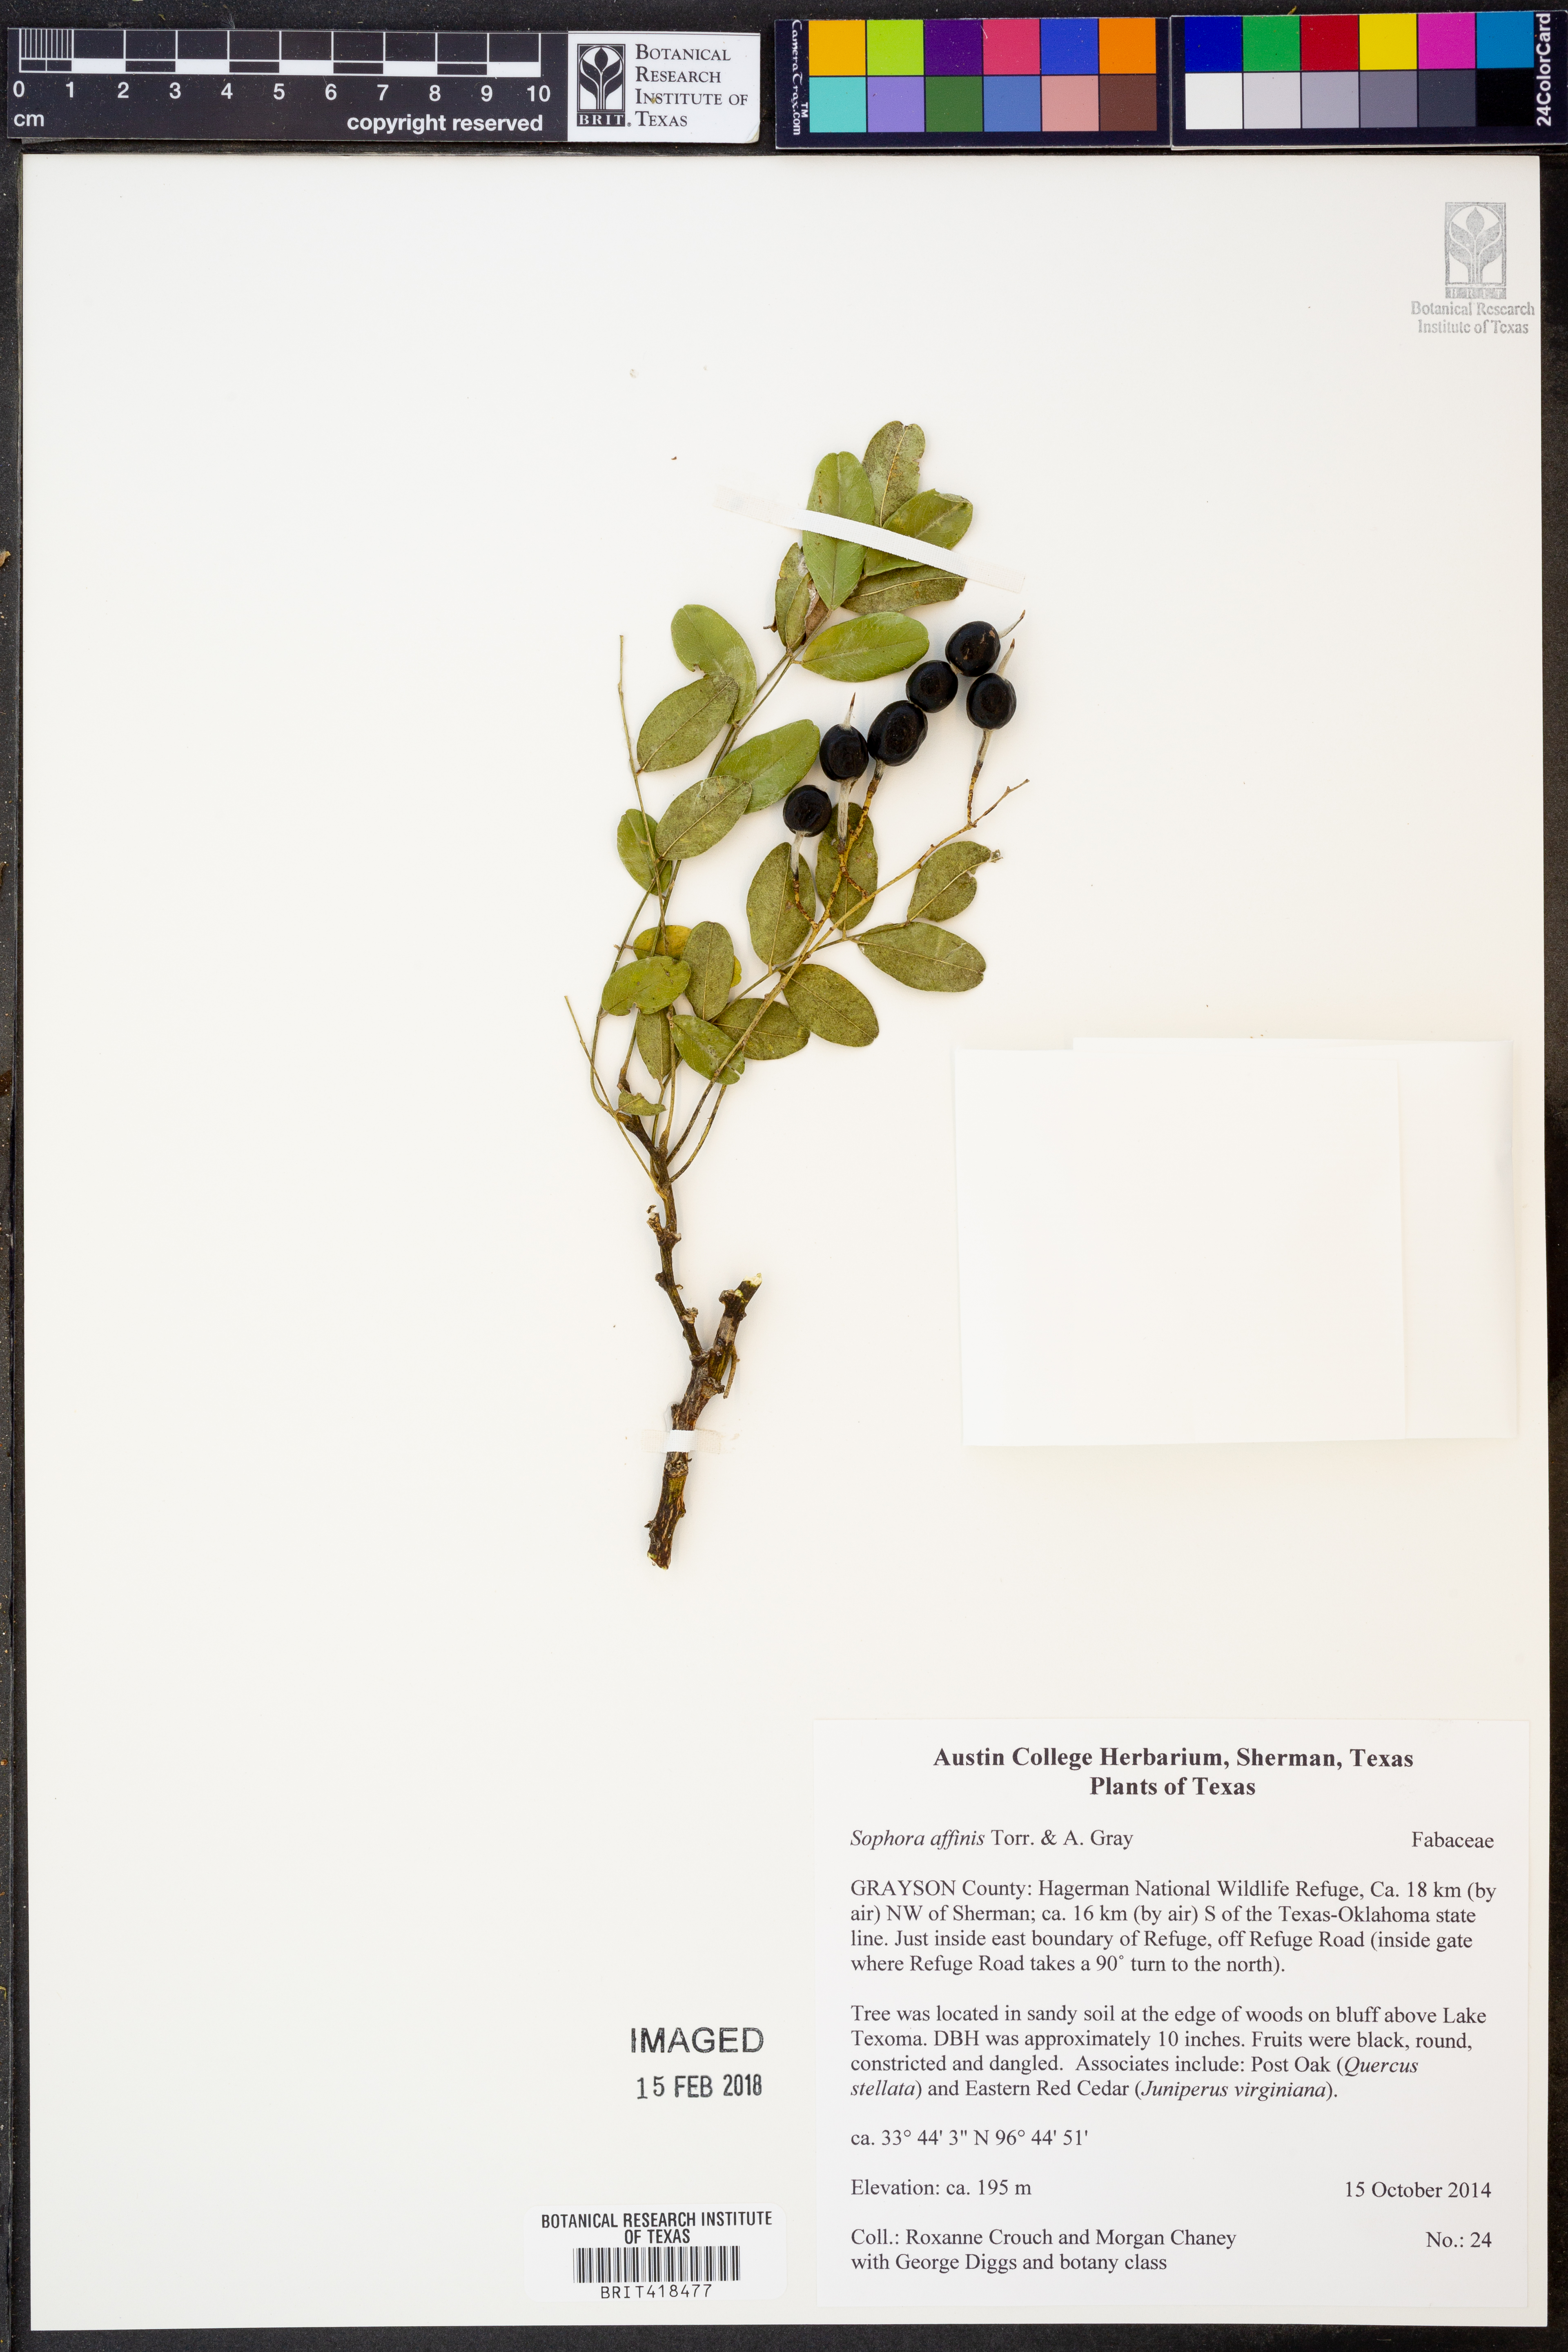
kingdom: Plantae
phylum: Tracheophyta
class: Magnoliopsida
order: Fabales
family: Fabaceae
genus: Styphnolobium
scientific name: Styphnolobium affine
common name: Texas sophora
